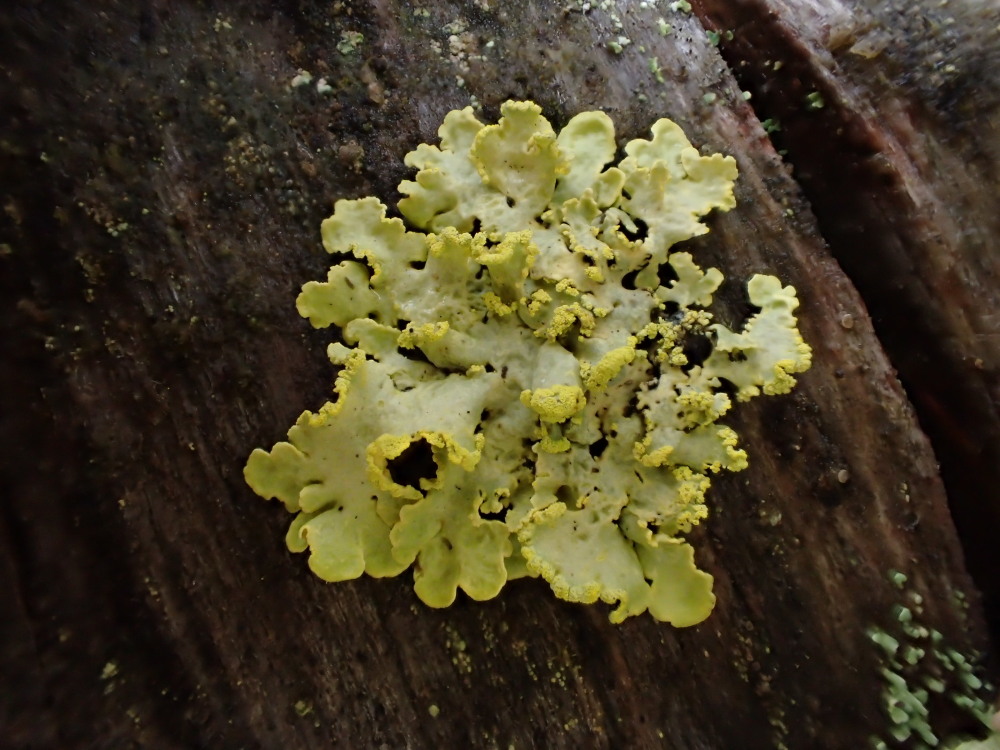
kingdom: Fungi
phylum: Ascomycota
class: Lecanoromycetes
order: Lecanorales
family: Parmeliaceae
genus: Vulpicida
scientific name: Vulpicida pinastri
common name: gul kruslav
